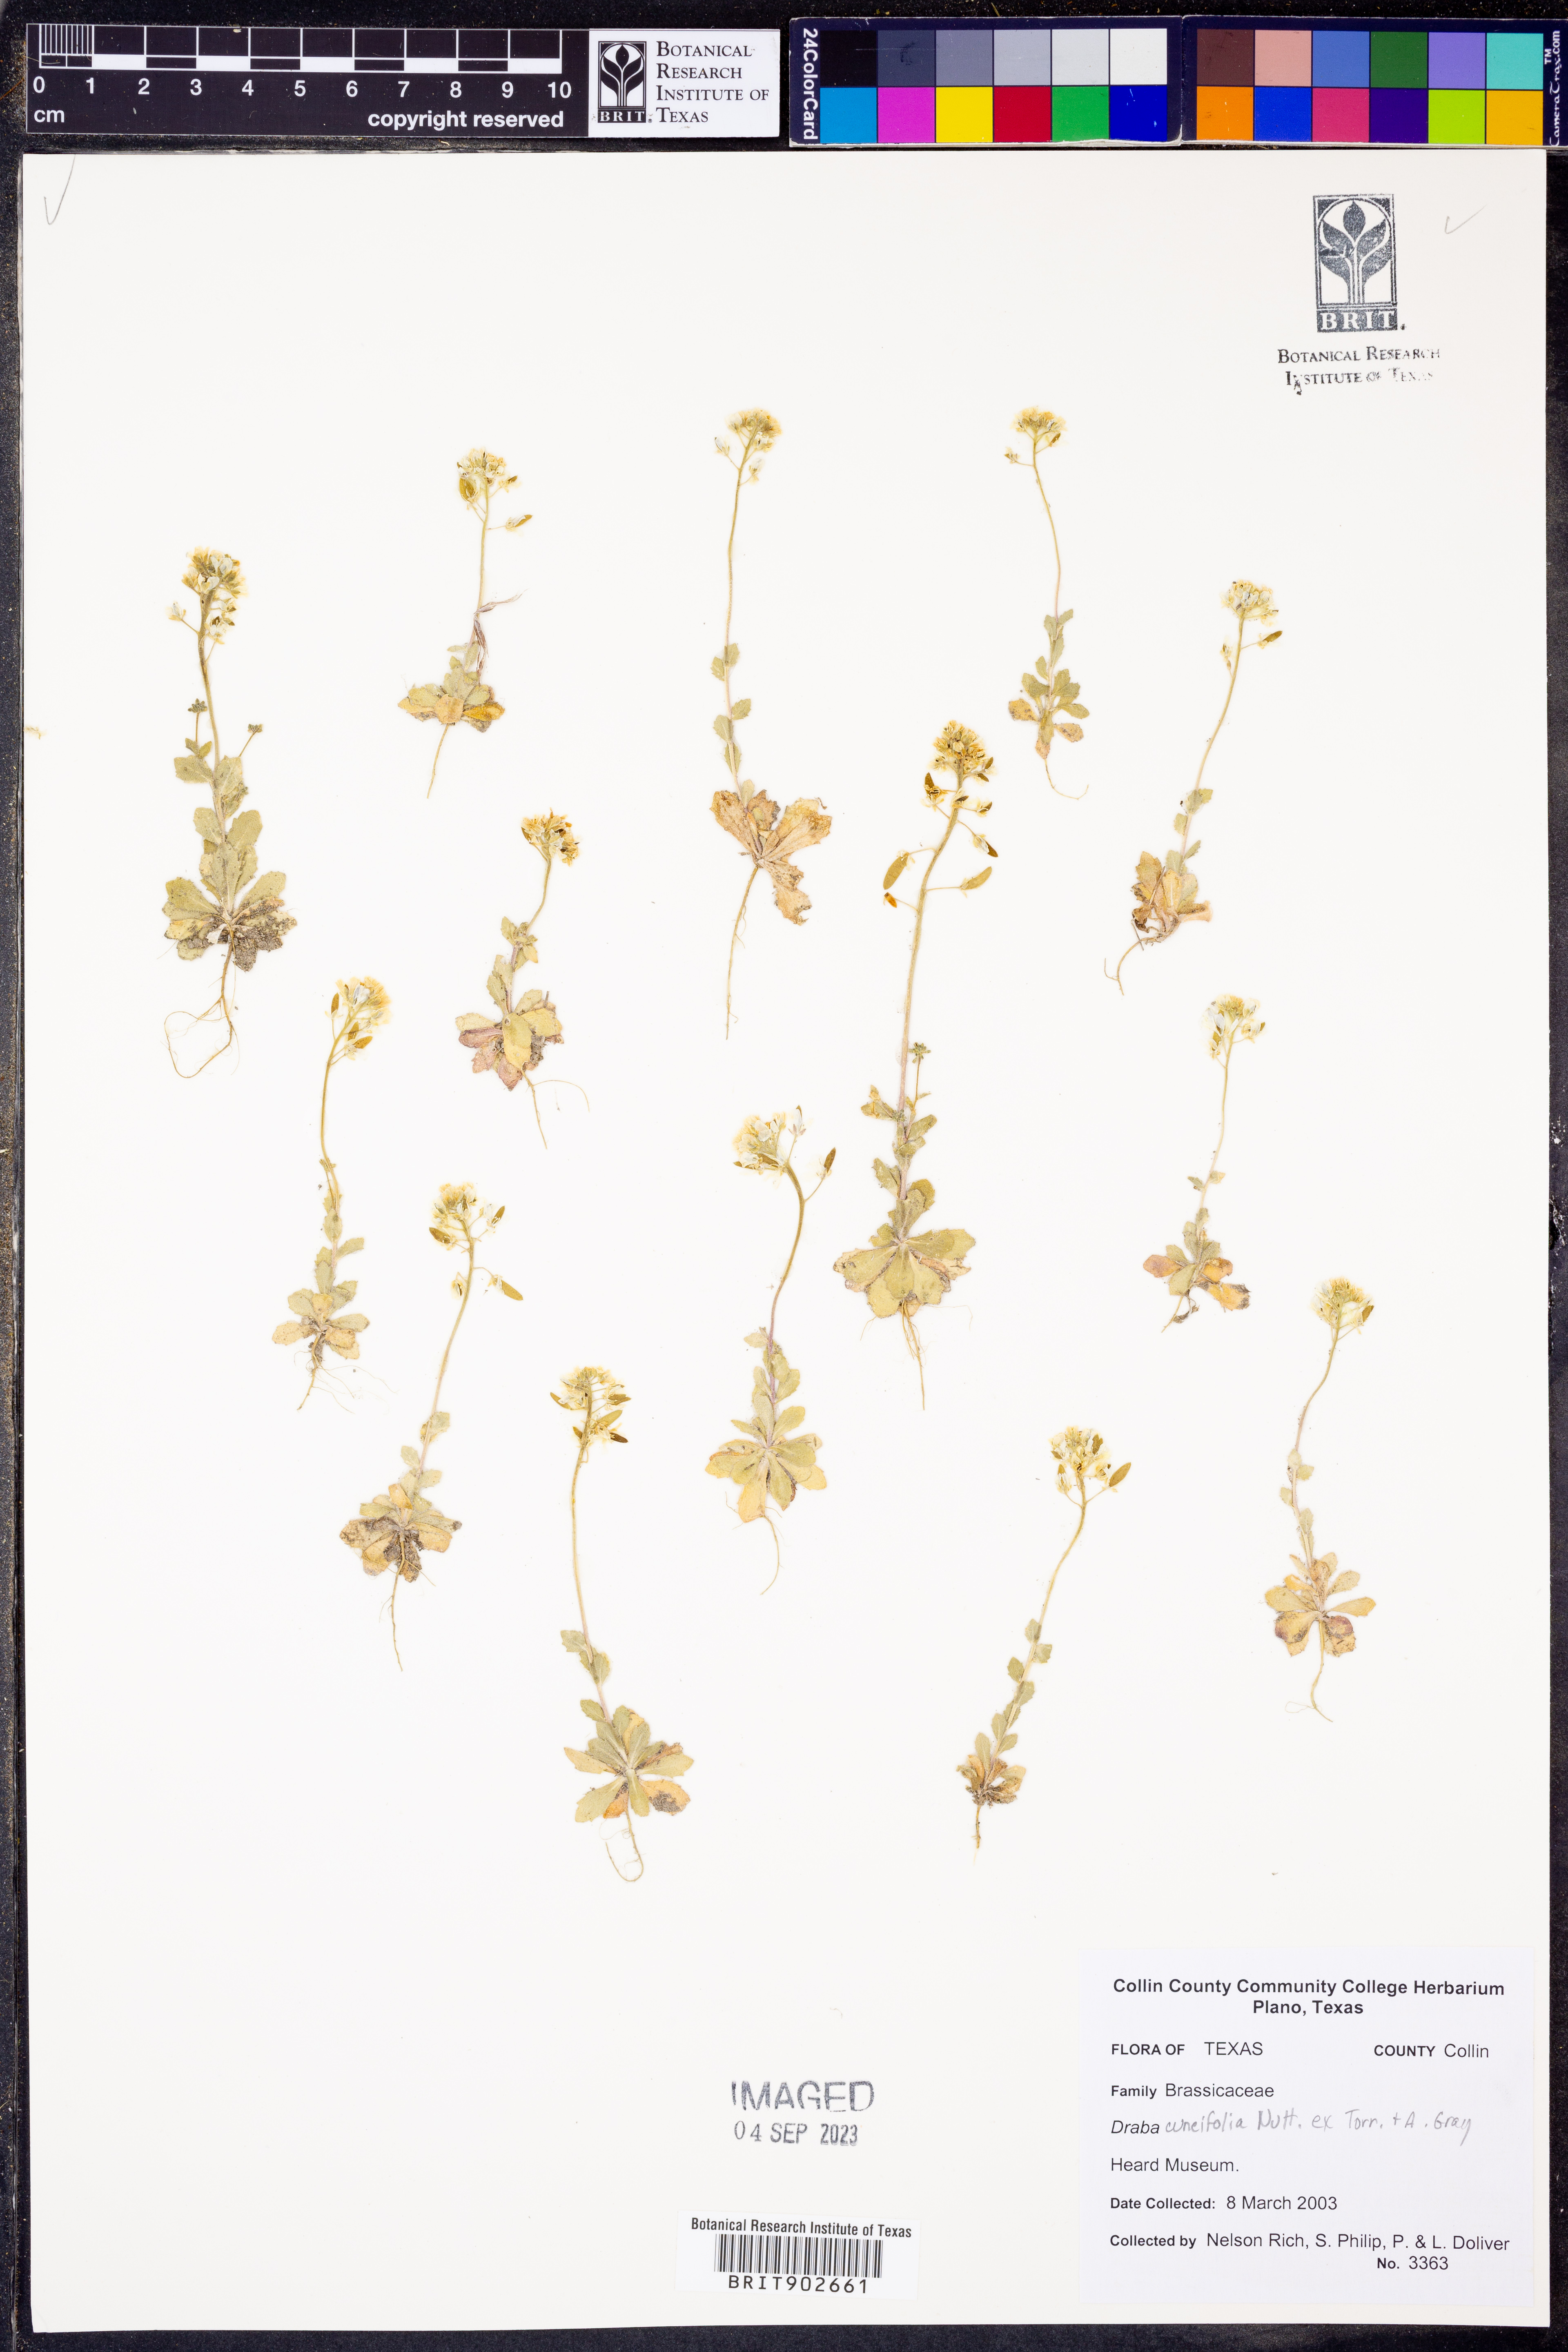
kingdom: Plantae
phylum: Tracheophyta
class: Magnoliopsida
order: Brassicales
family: Brassicaceae
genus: Tomostima
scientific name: Tomostima cuneifolia
